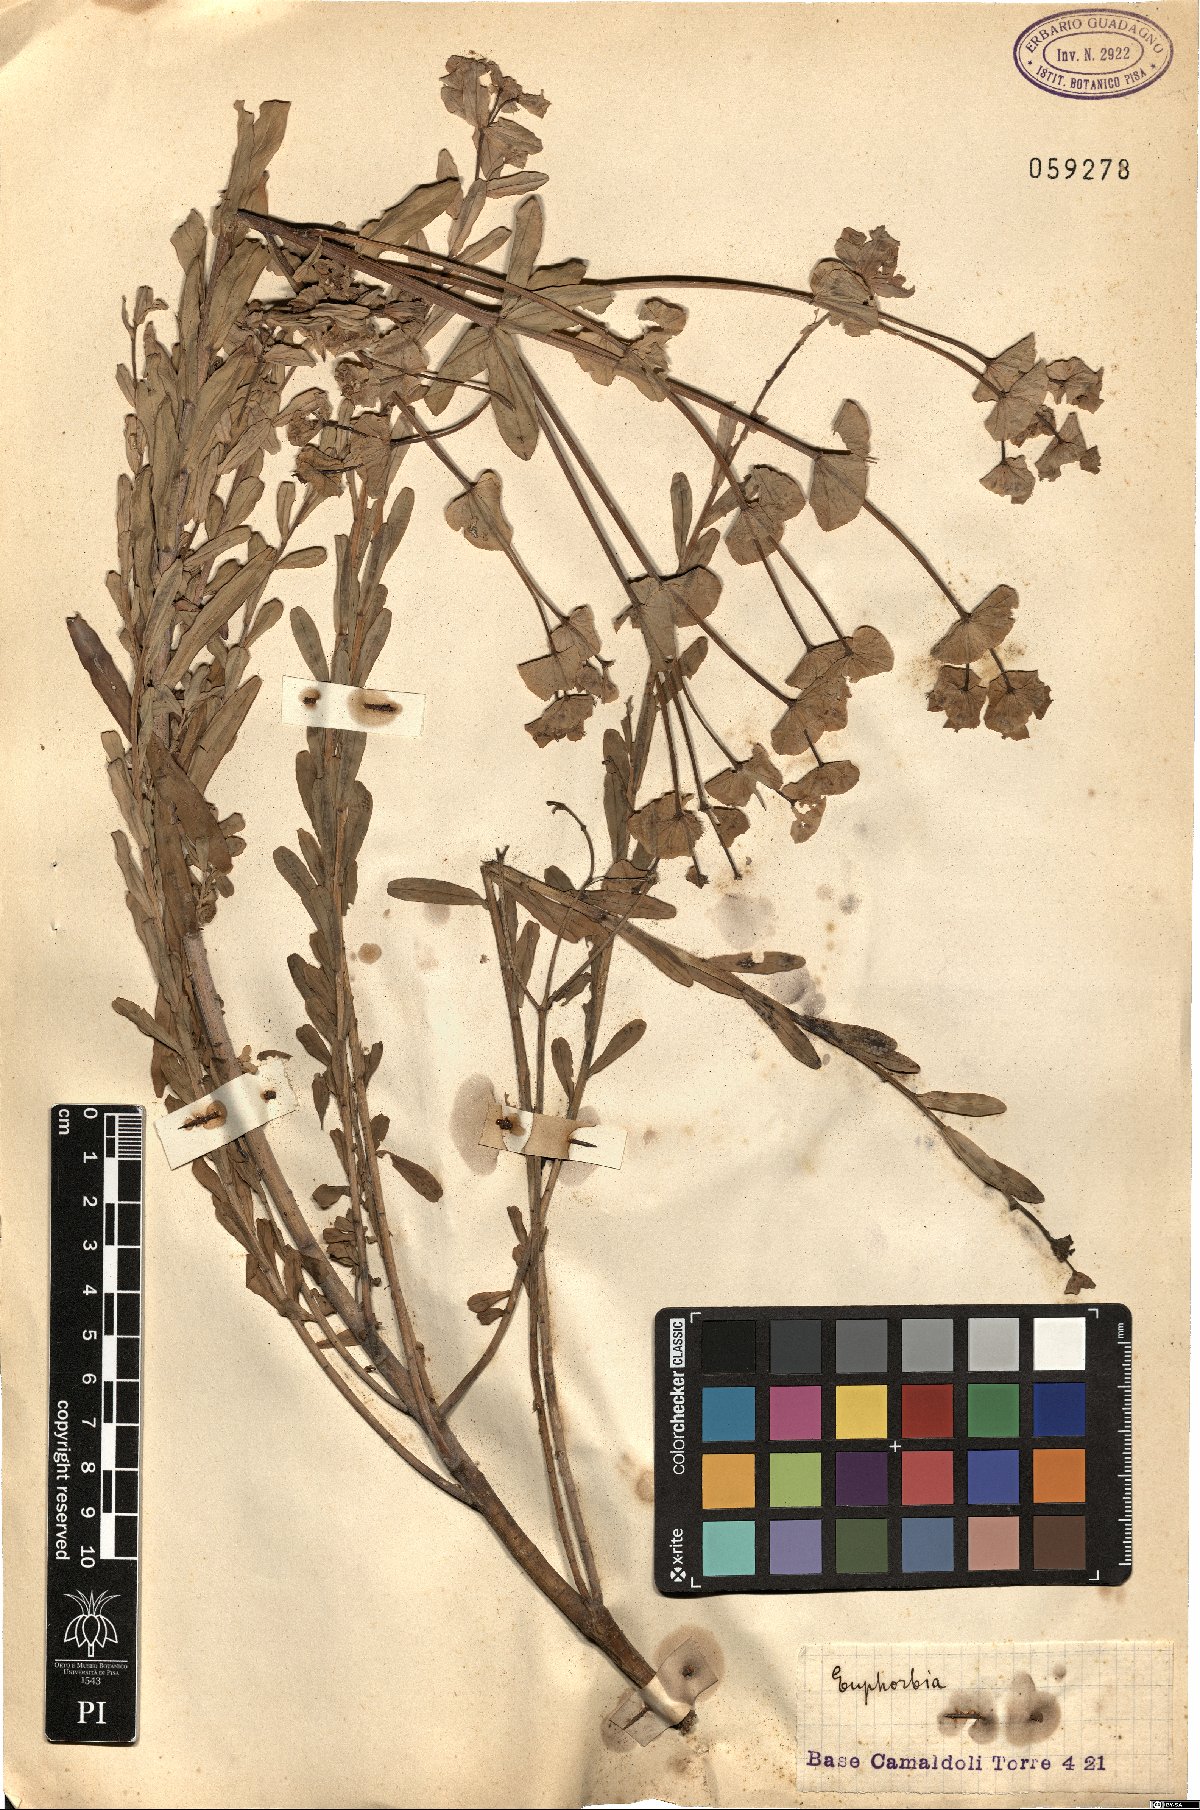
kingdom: Plantae
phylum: Tracheophyta
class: Magnoliopsida
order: Malpighiales
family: Euphorbiaceae
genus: Euphorbia
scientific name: Euphorbia
